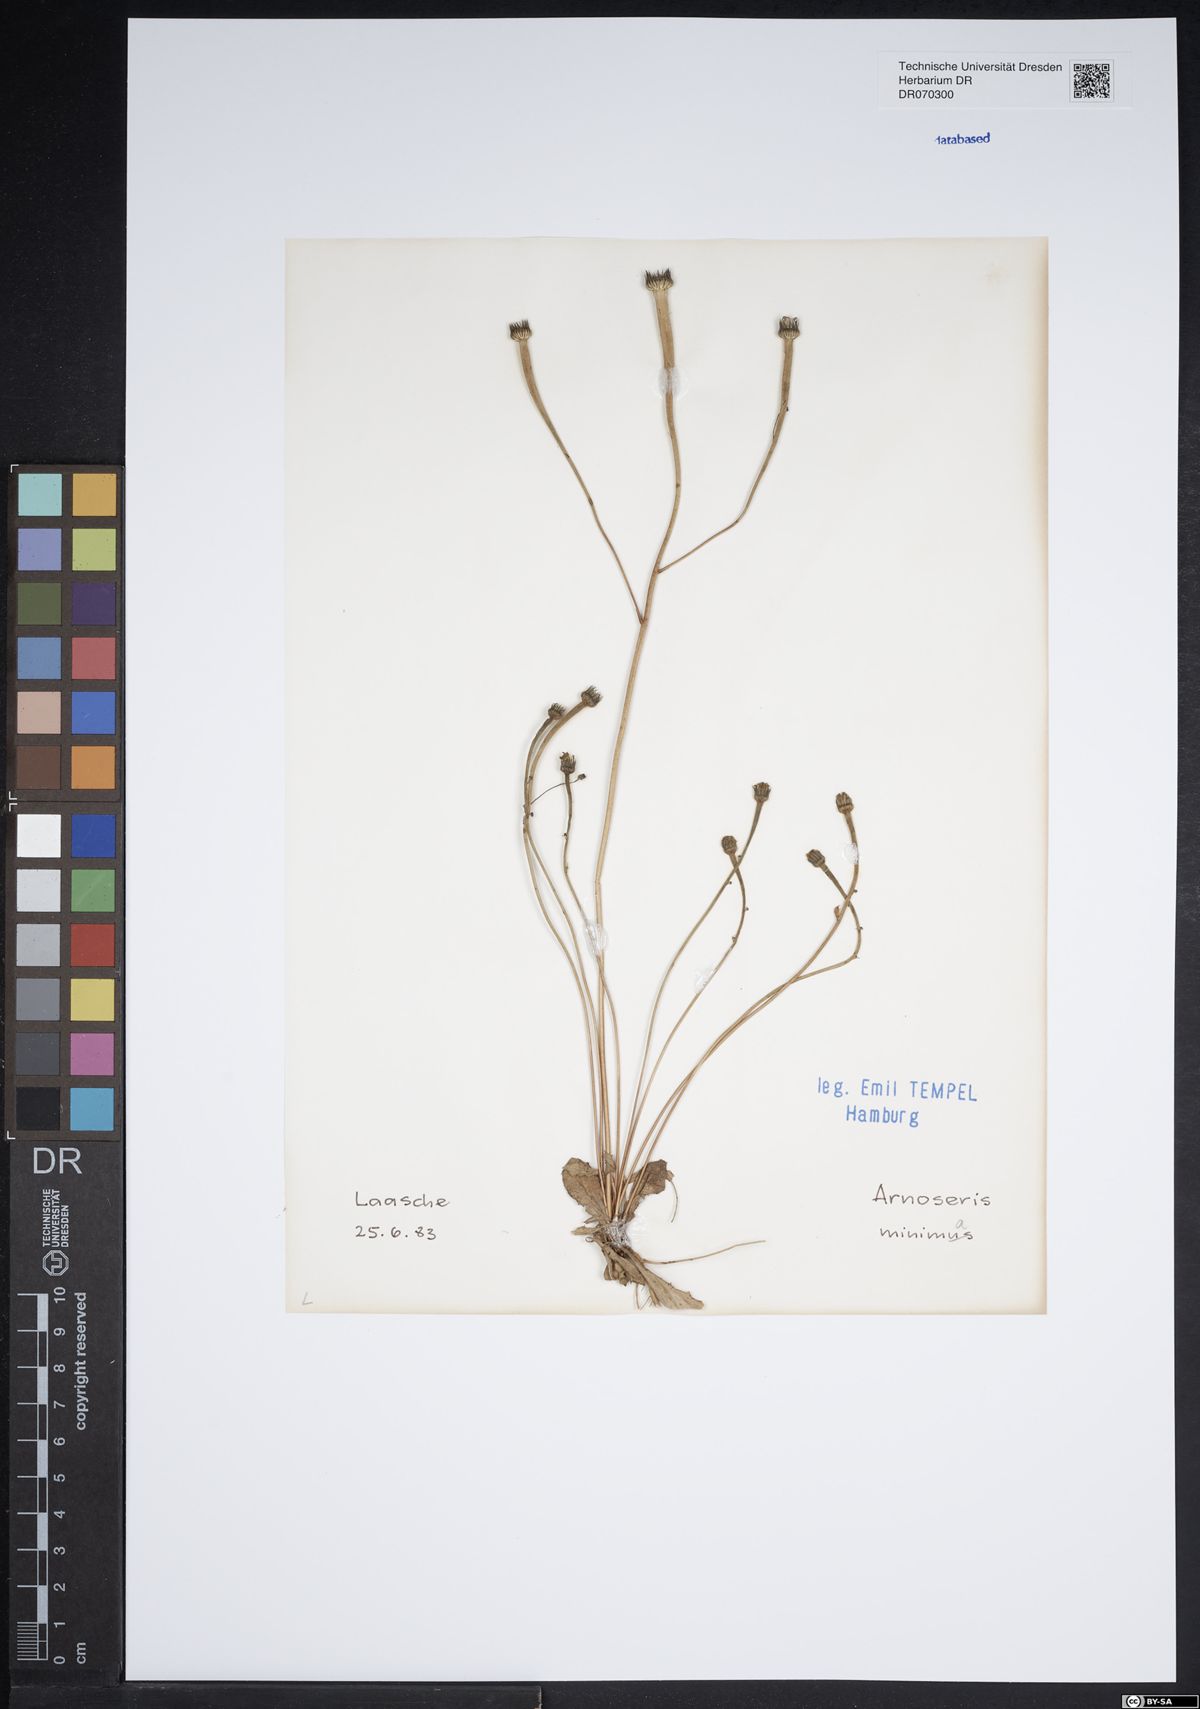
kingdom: Plantae
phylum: Tracheophyta
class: Magnoliopsida
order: Asterales
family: Asteraceae
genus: Arnoseris
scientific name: Arnoseris minima
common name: Lamb's succory
